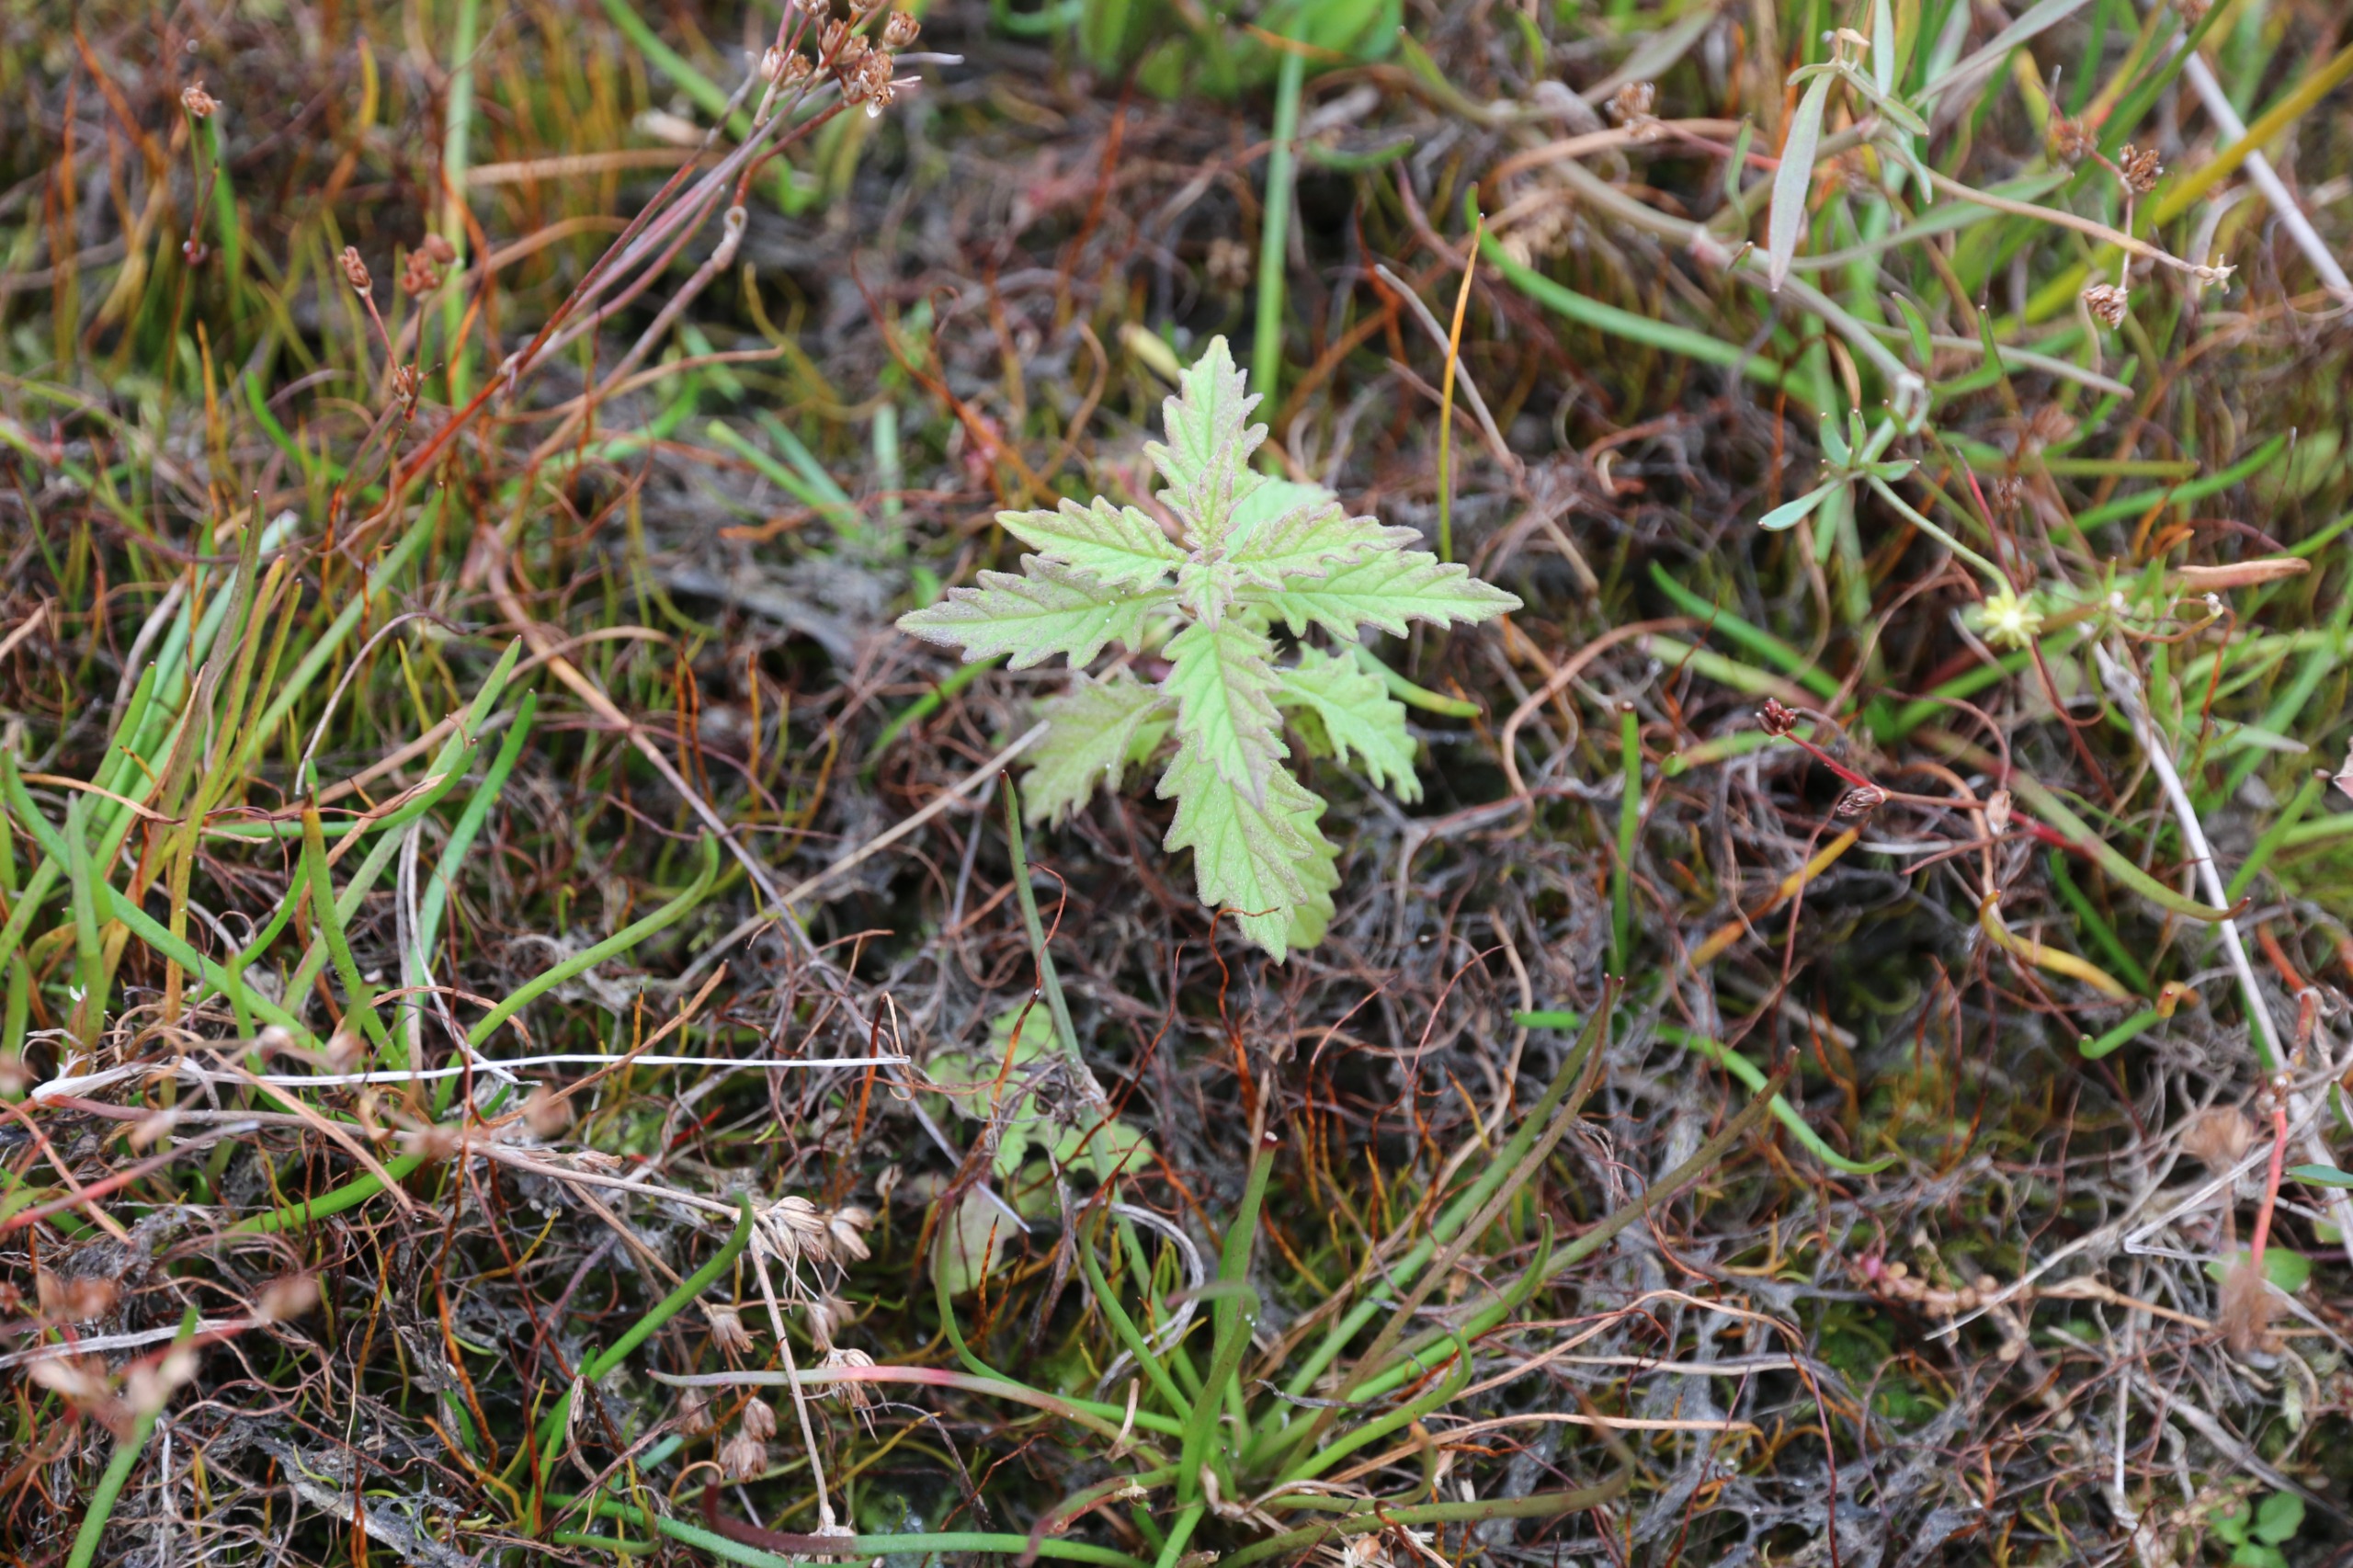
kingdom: Plantae
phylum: Tracheophyta
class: Magnoliopsida
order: Lamiales
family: Lamiaceae
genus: Lycopus
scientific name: Lycopus europaeus
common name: Sværtevæld
